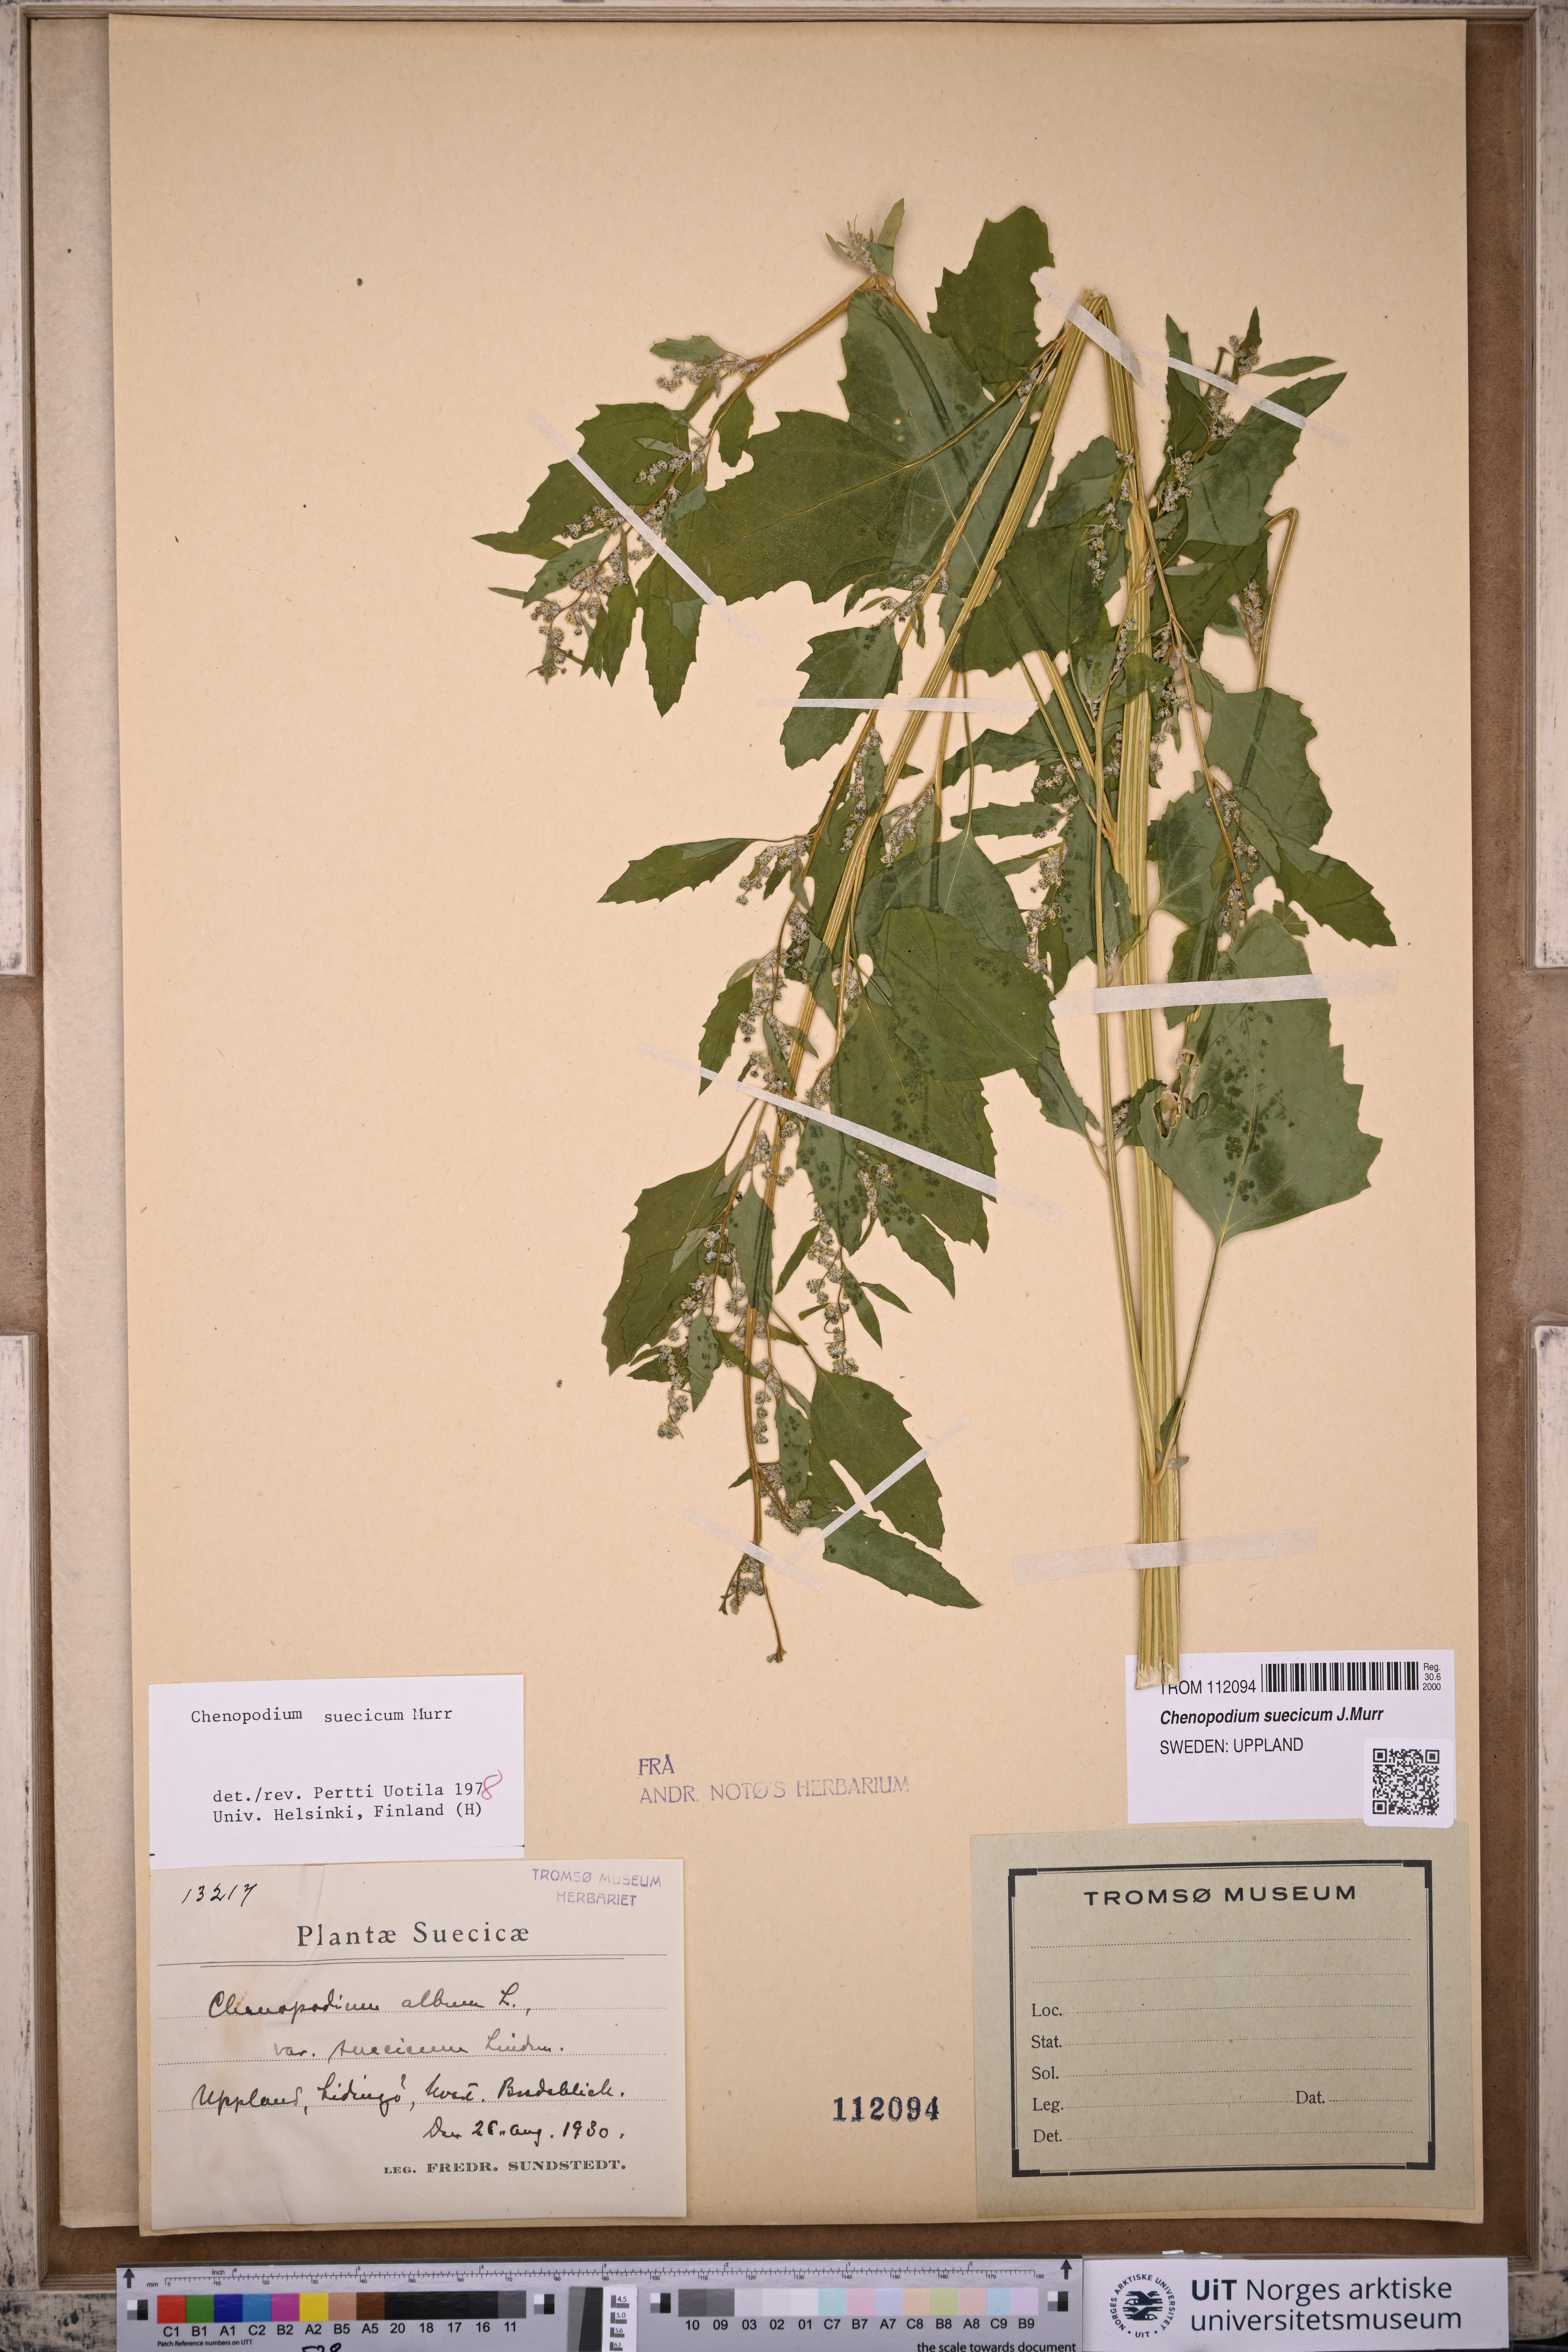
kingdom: Plantae
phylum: Tracheophyta
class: Magnoliopsida
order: Caryophyllales
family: Amaranthaceae
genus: Chenopodium
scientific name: Chenopodium suecicum
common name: Swedish goosefoot
